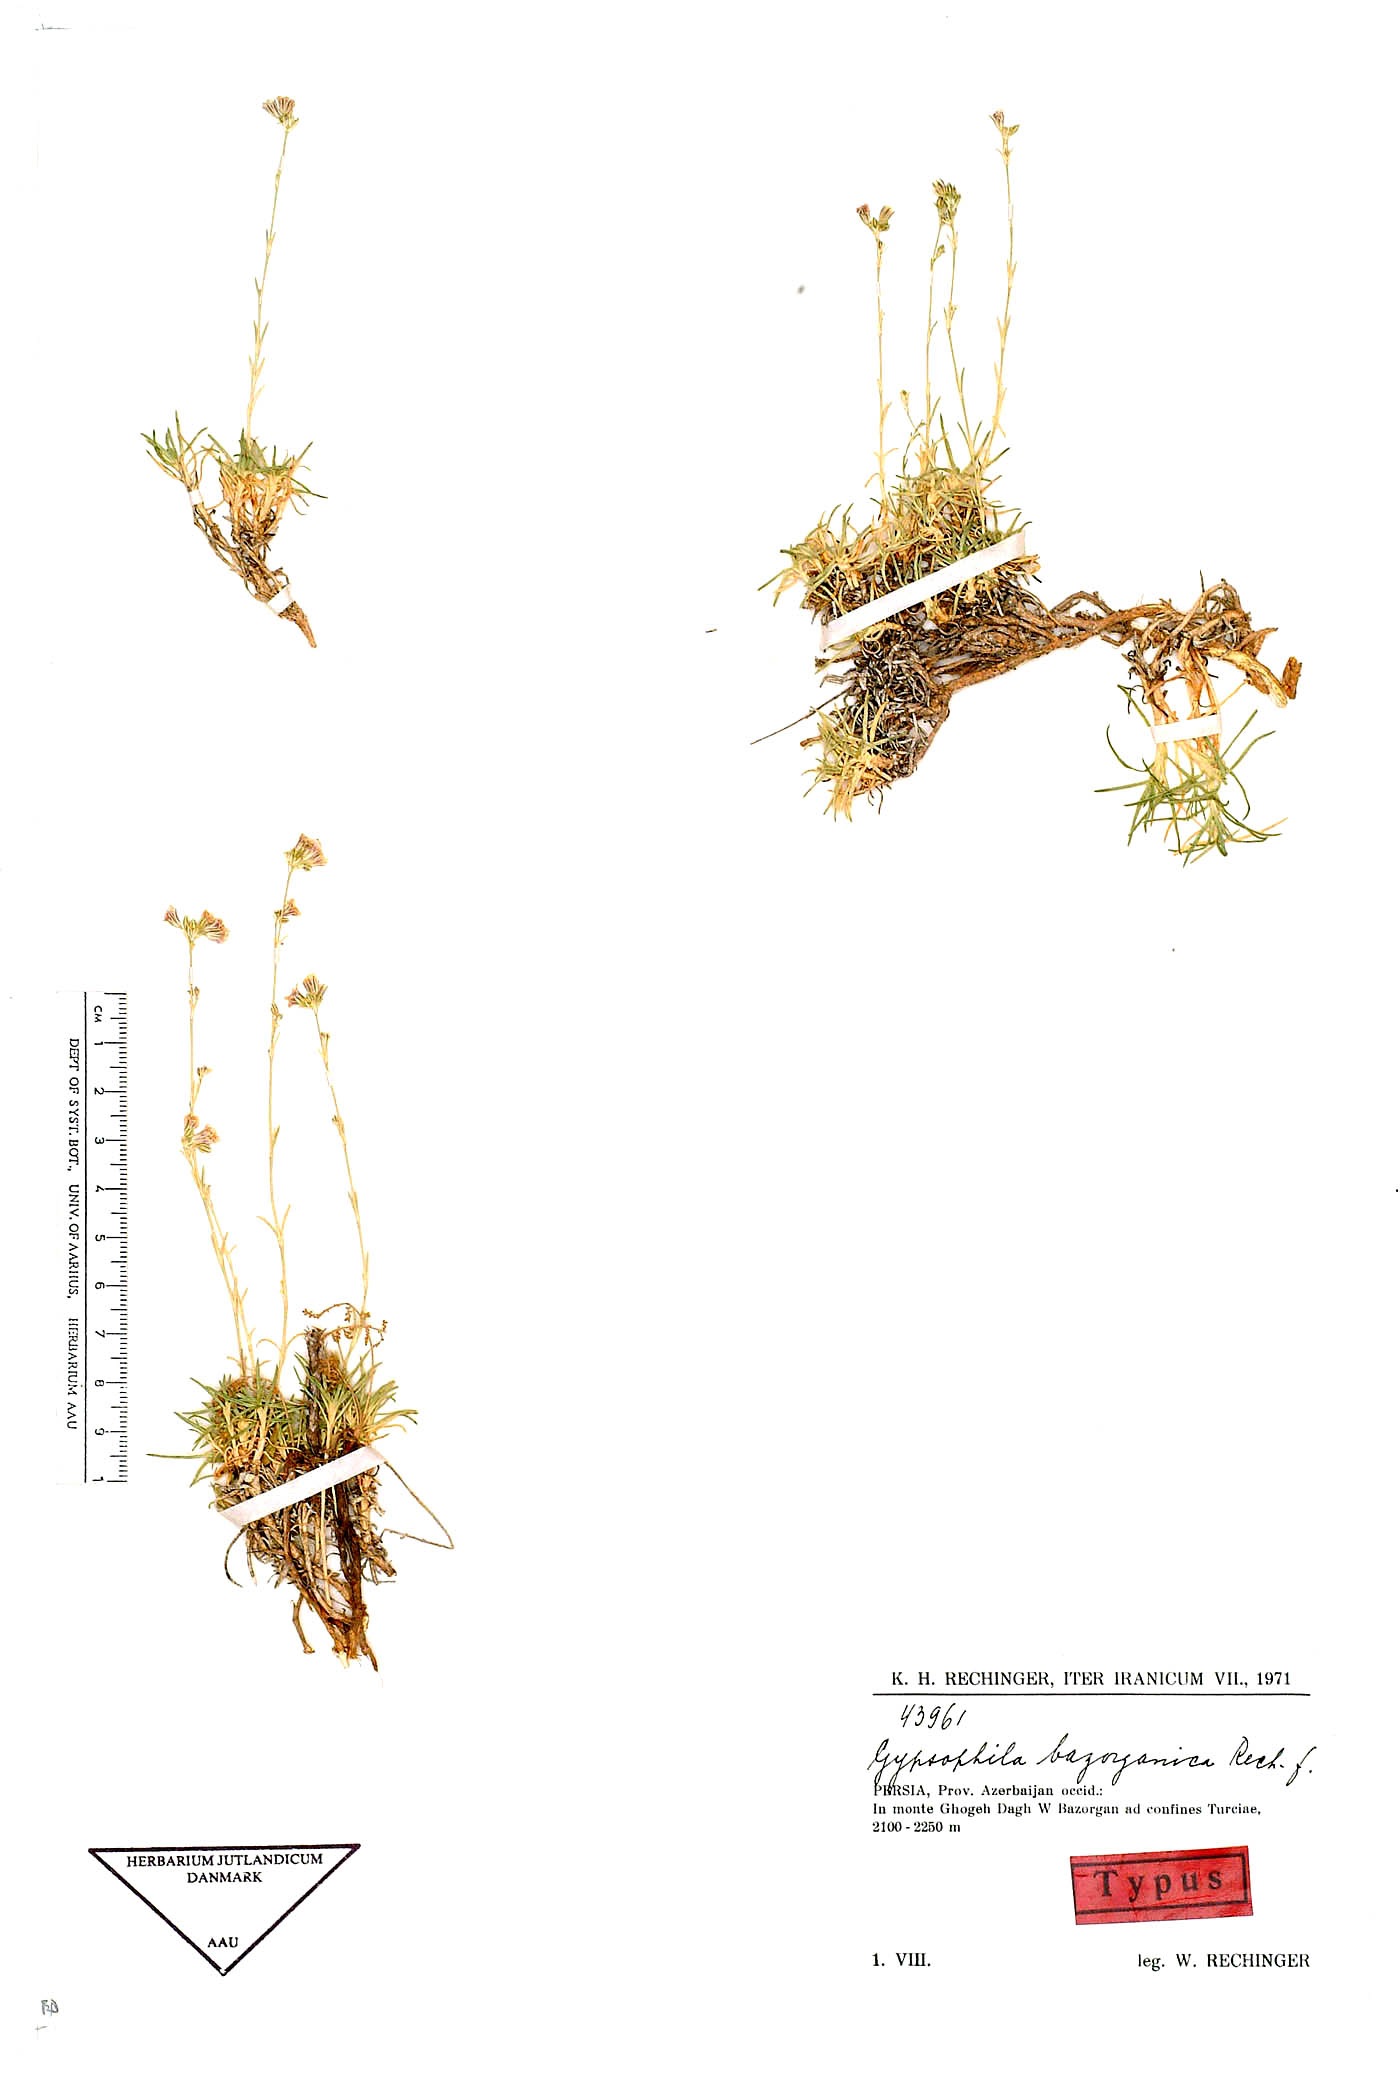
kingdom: Plantae
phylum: Tracheophyta
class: Magnoliopsida
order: Caryophyllales
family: Caryophyllaceae
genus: Gypsophila
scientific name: Gypsophila bazorganica
